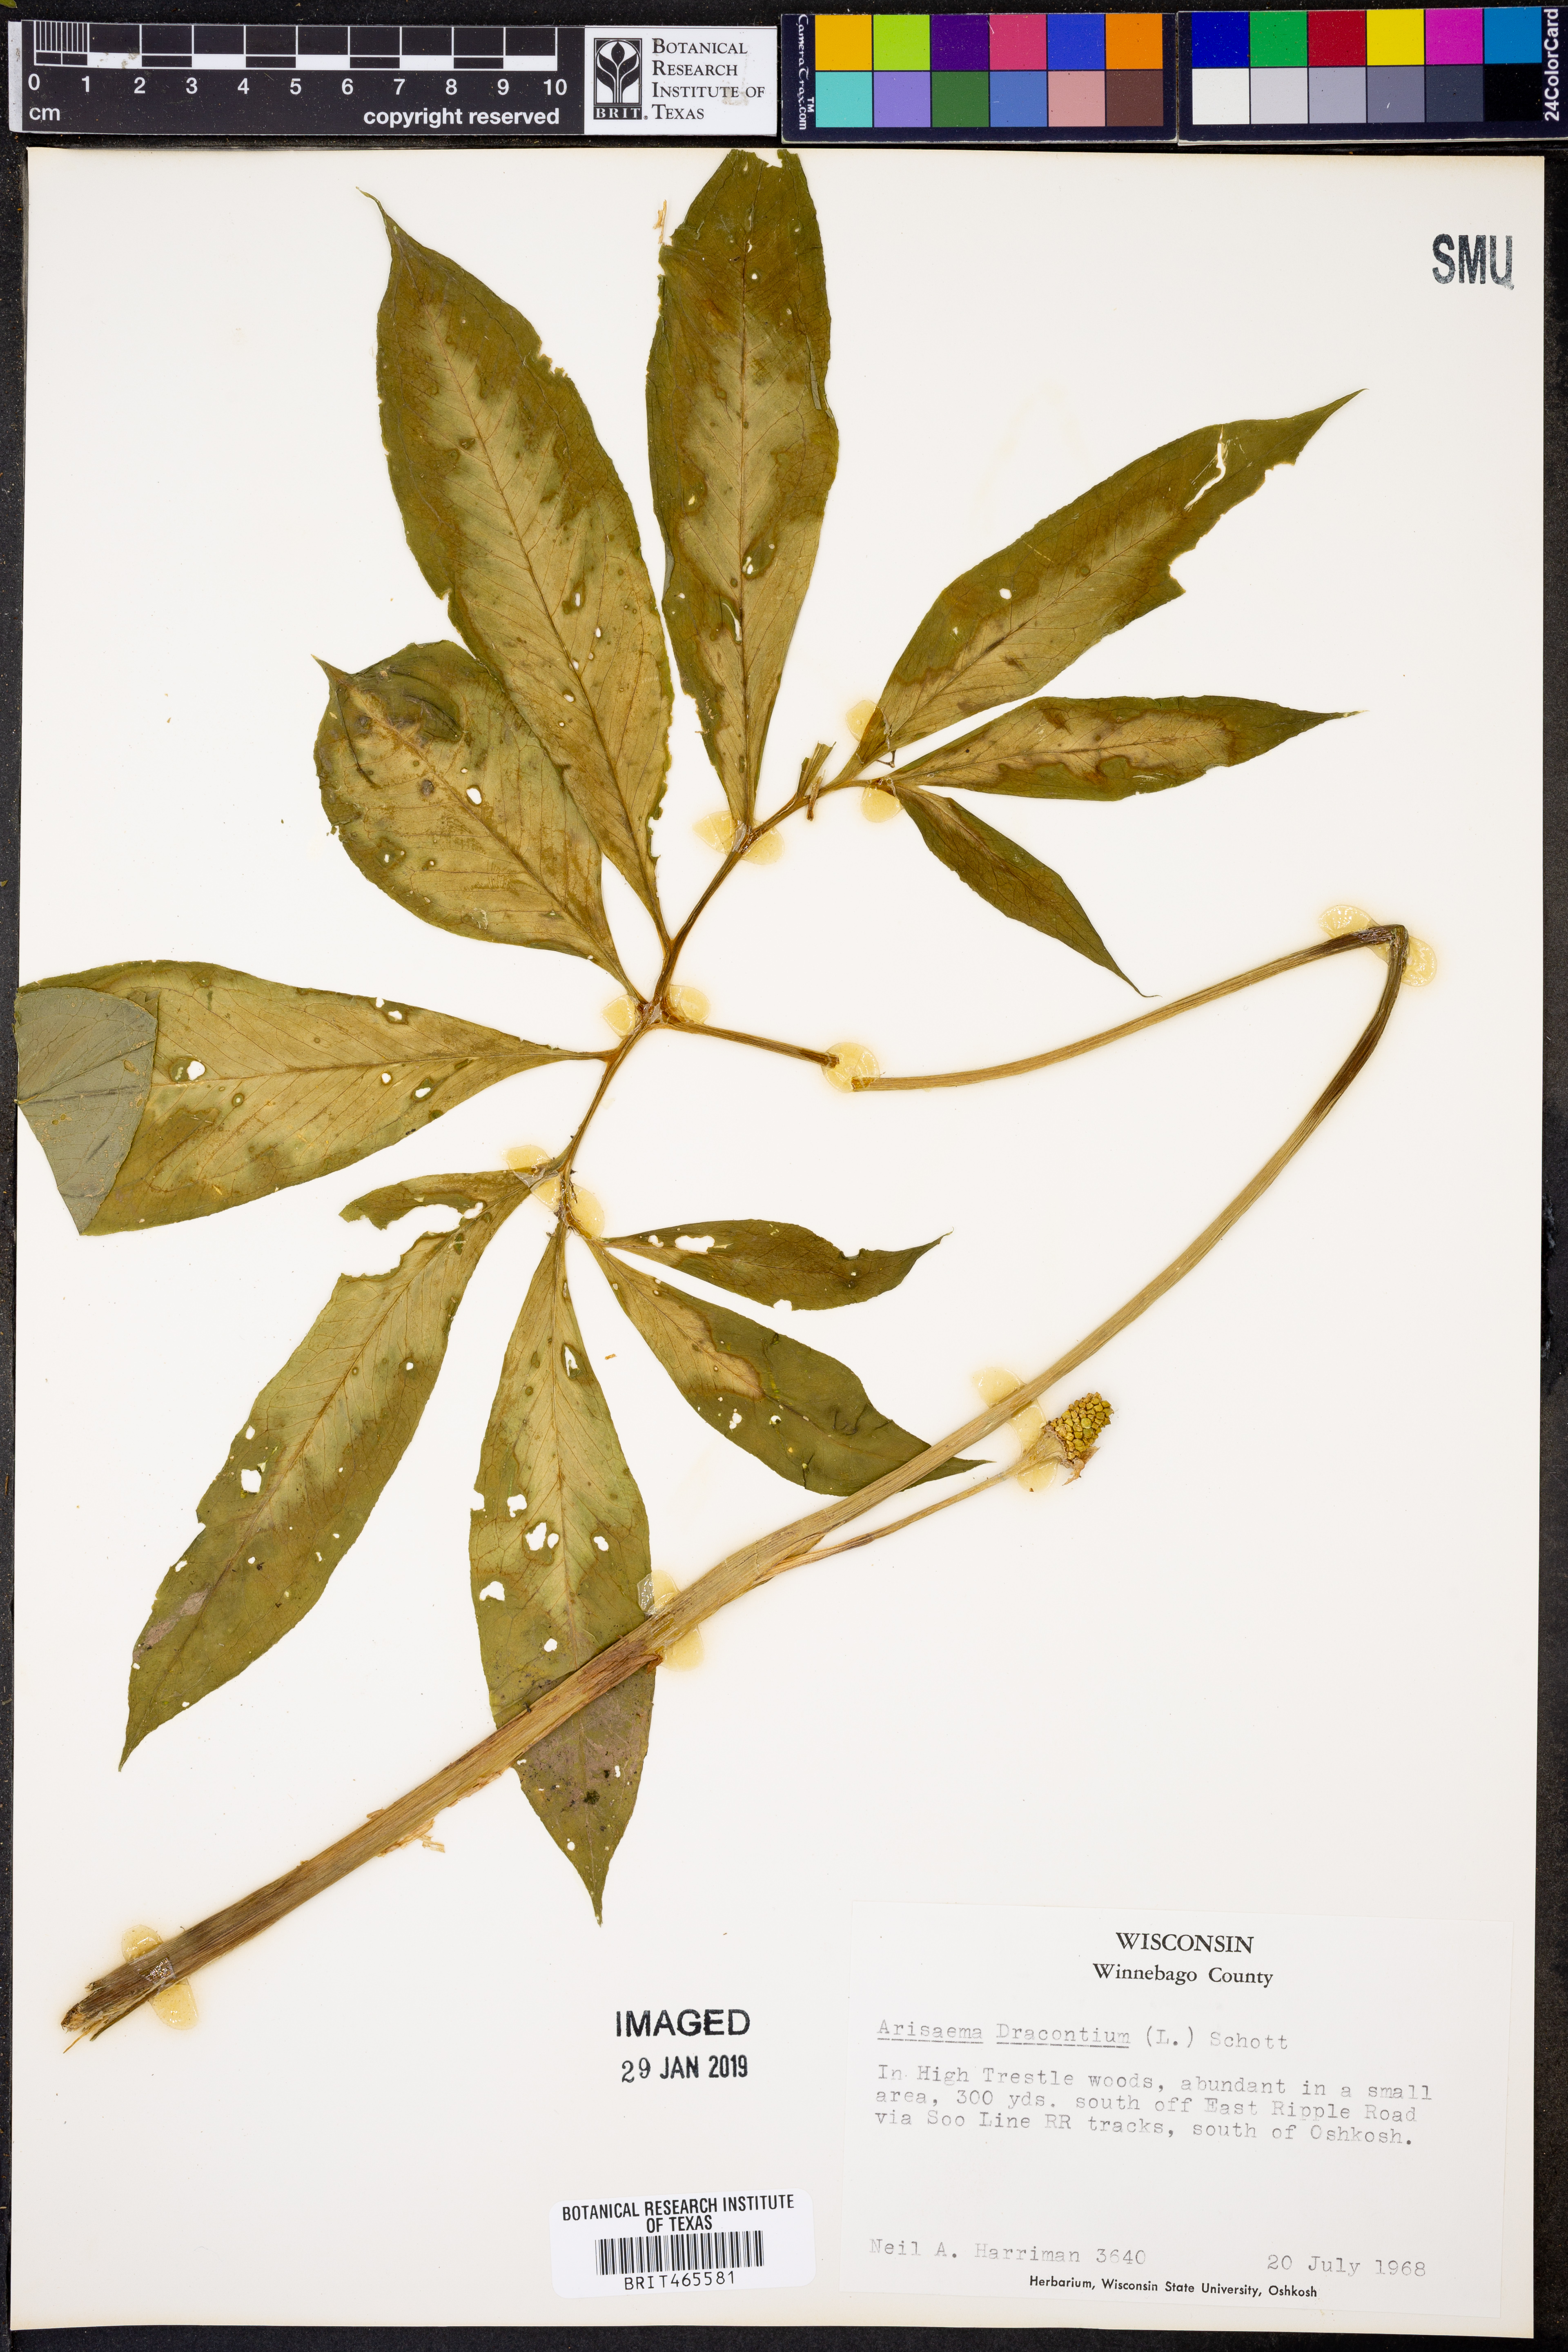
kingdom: Plantae
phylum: Tracheophyta
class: Liliopsida
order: Alismatales
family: Araceae
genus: Arisaema
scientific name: Arisaema dracontium
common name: Dragon-arum
